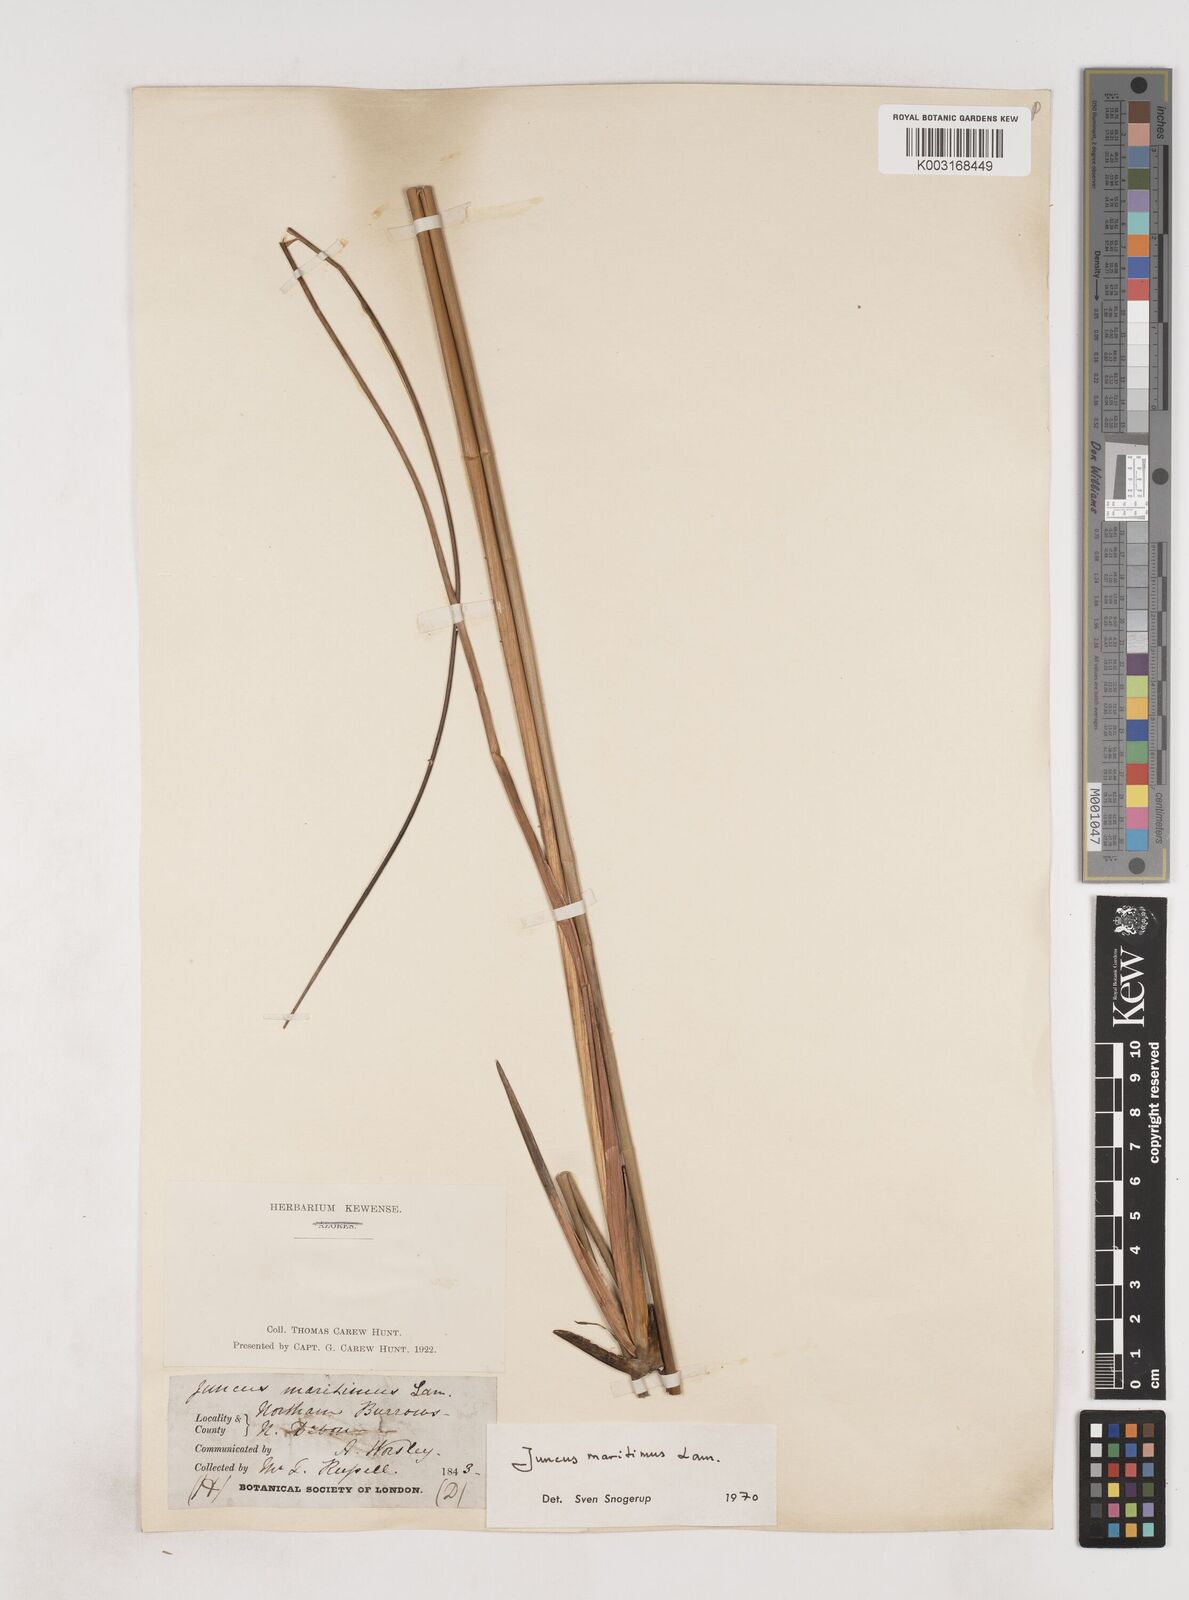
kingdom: Plantae
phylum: Tracheophyta
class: Liliopsida
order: Poales
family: Juncaceae
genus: Juncus
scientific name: Juncus maritimus
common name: Sea rush
